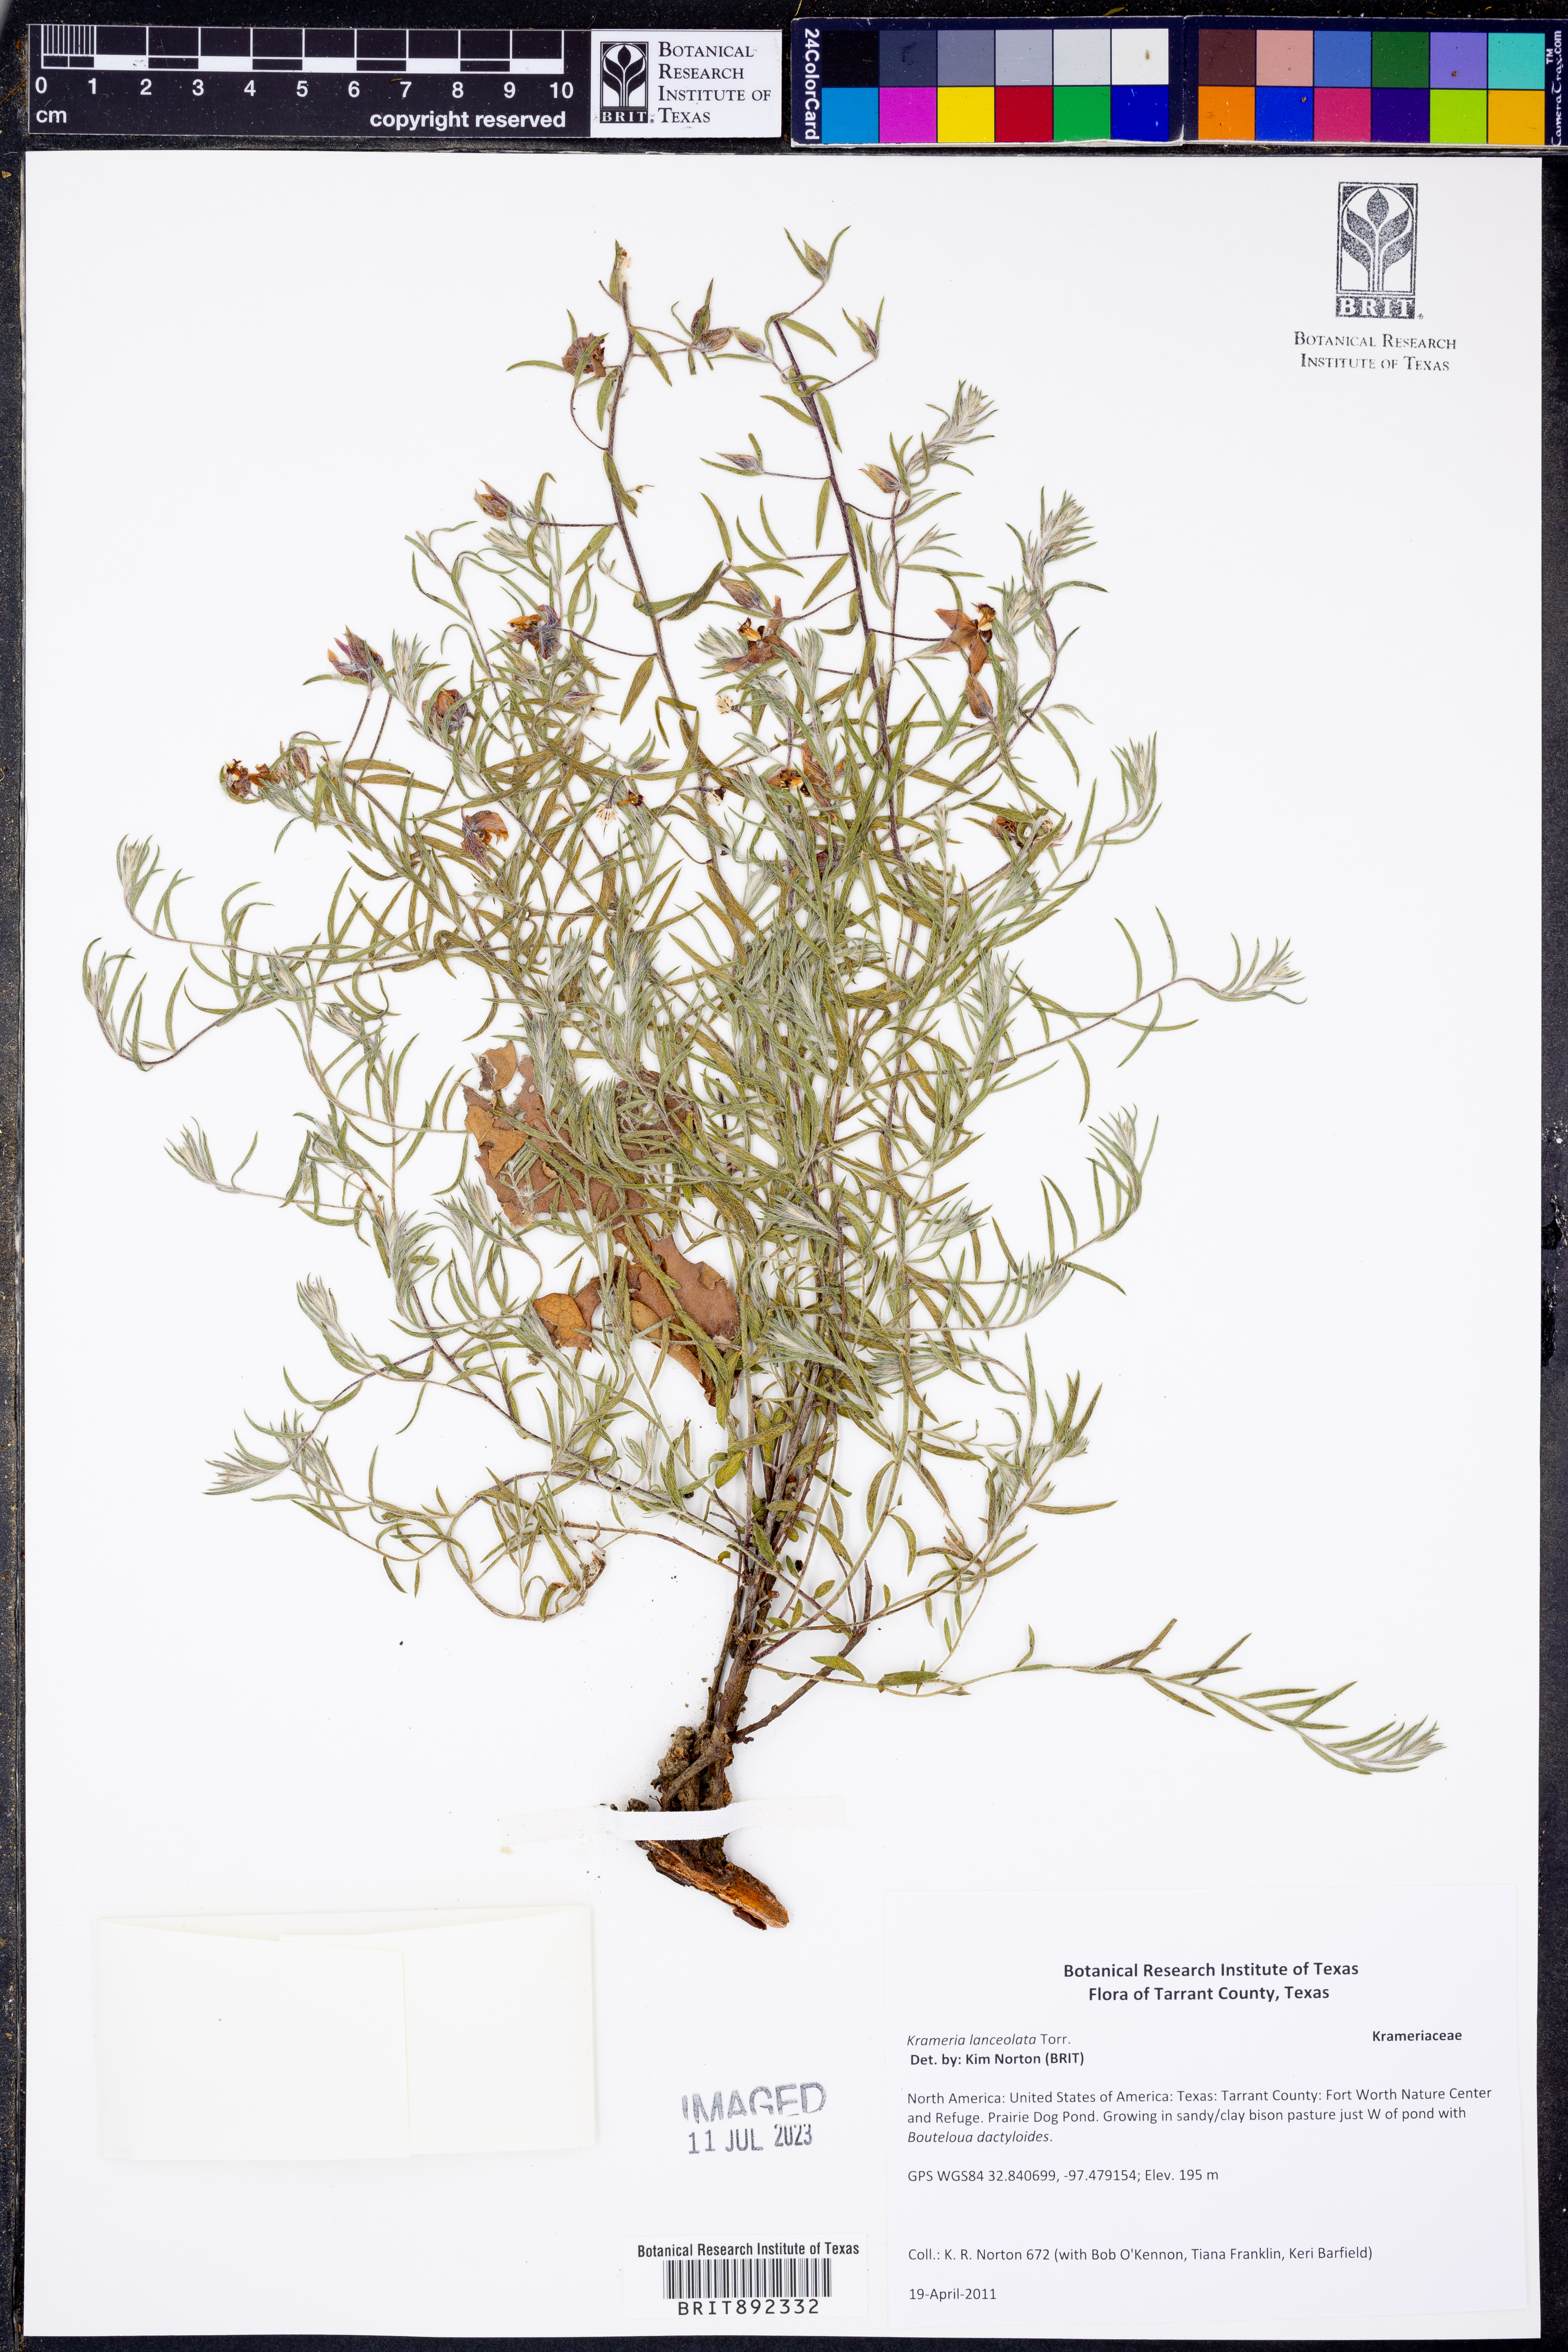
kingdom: Plantae
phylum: Tracheophyta
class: Magnoliopsida
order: Zygophyllales
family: Krameriaceae
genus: Krameria
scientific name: Krameria lanceolata
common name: Ratany
